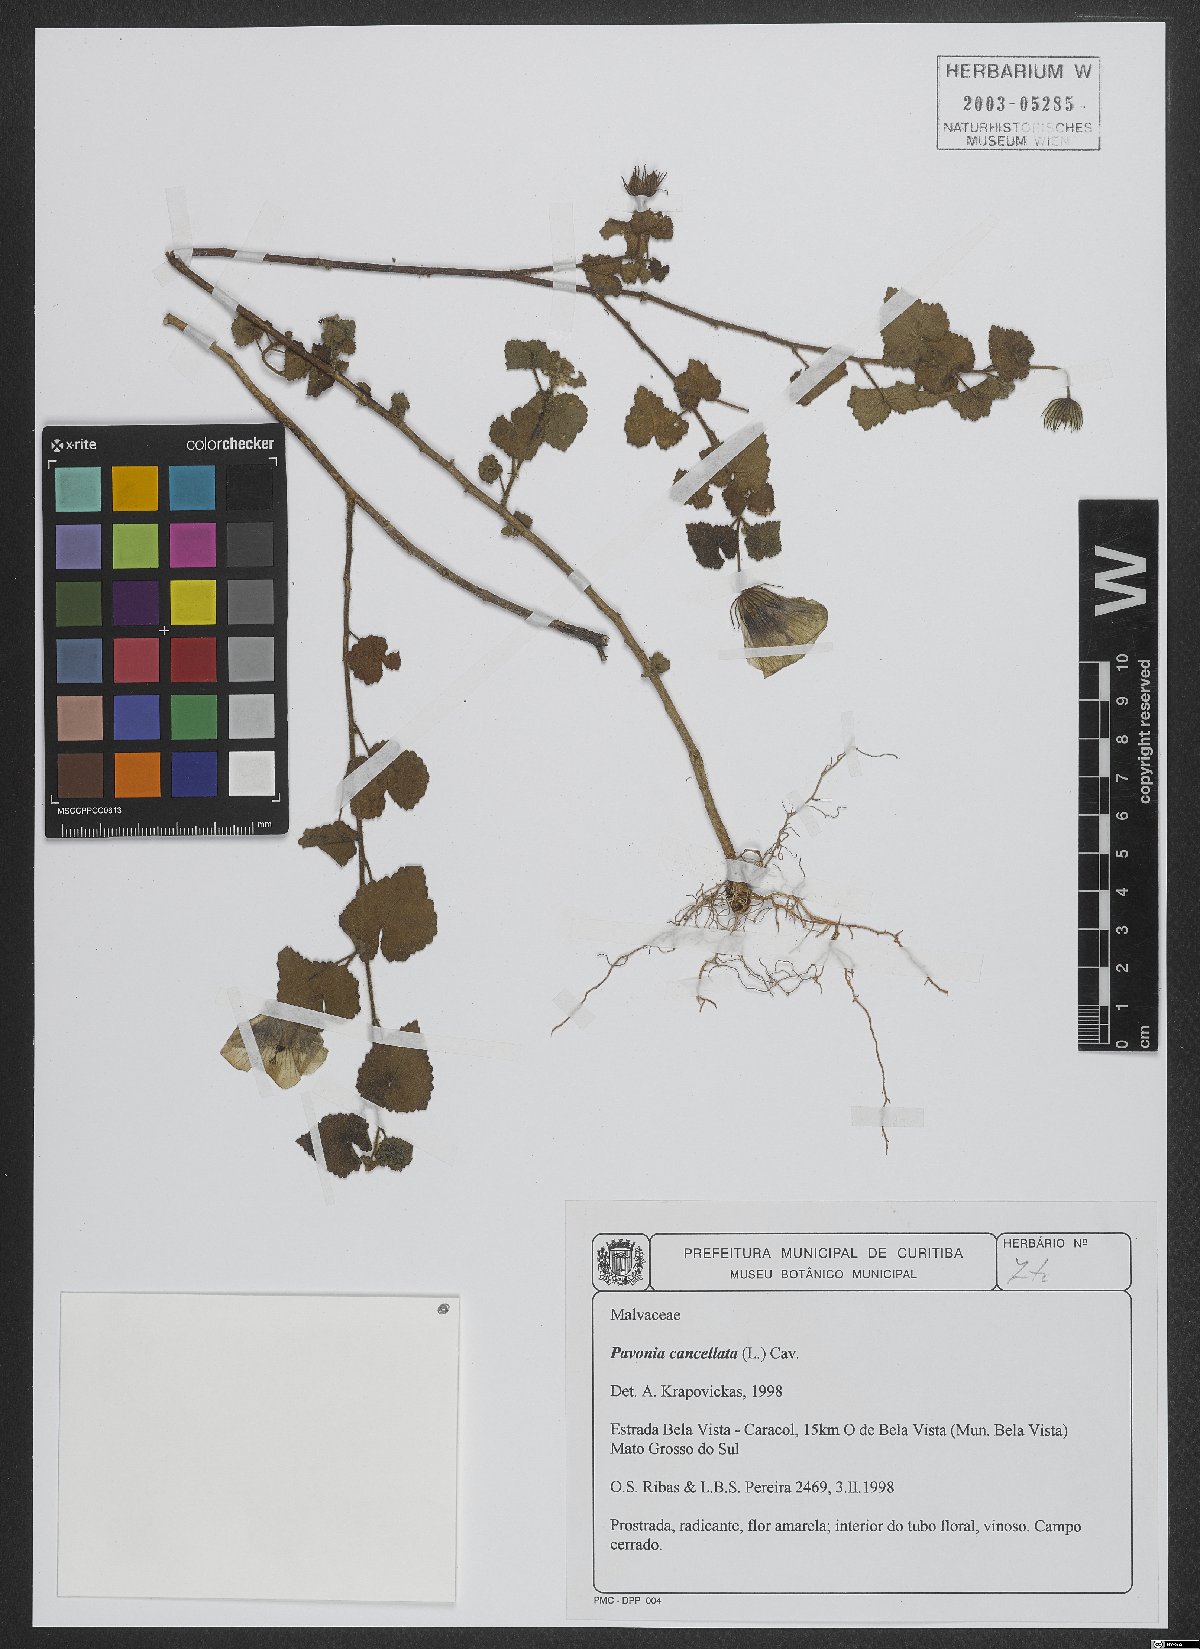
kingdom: Plantae
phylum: Tracheophyta
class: Magnoliopsida
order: Malvales
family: Malvaceae
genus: Pavonia
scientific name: Pavonia cancellata
